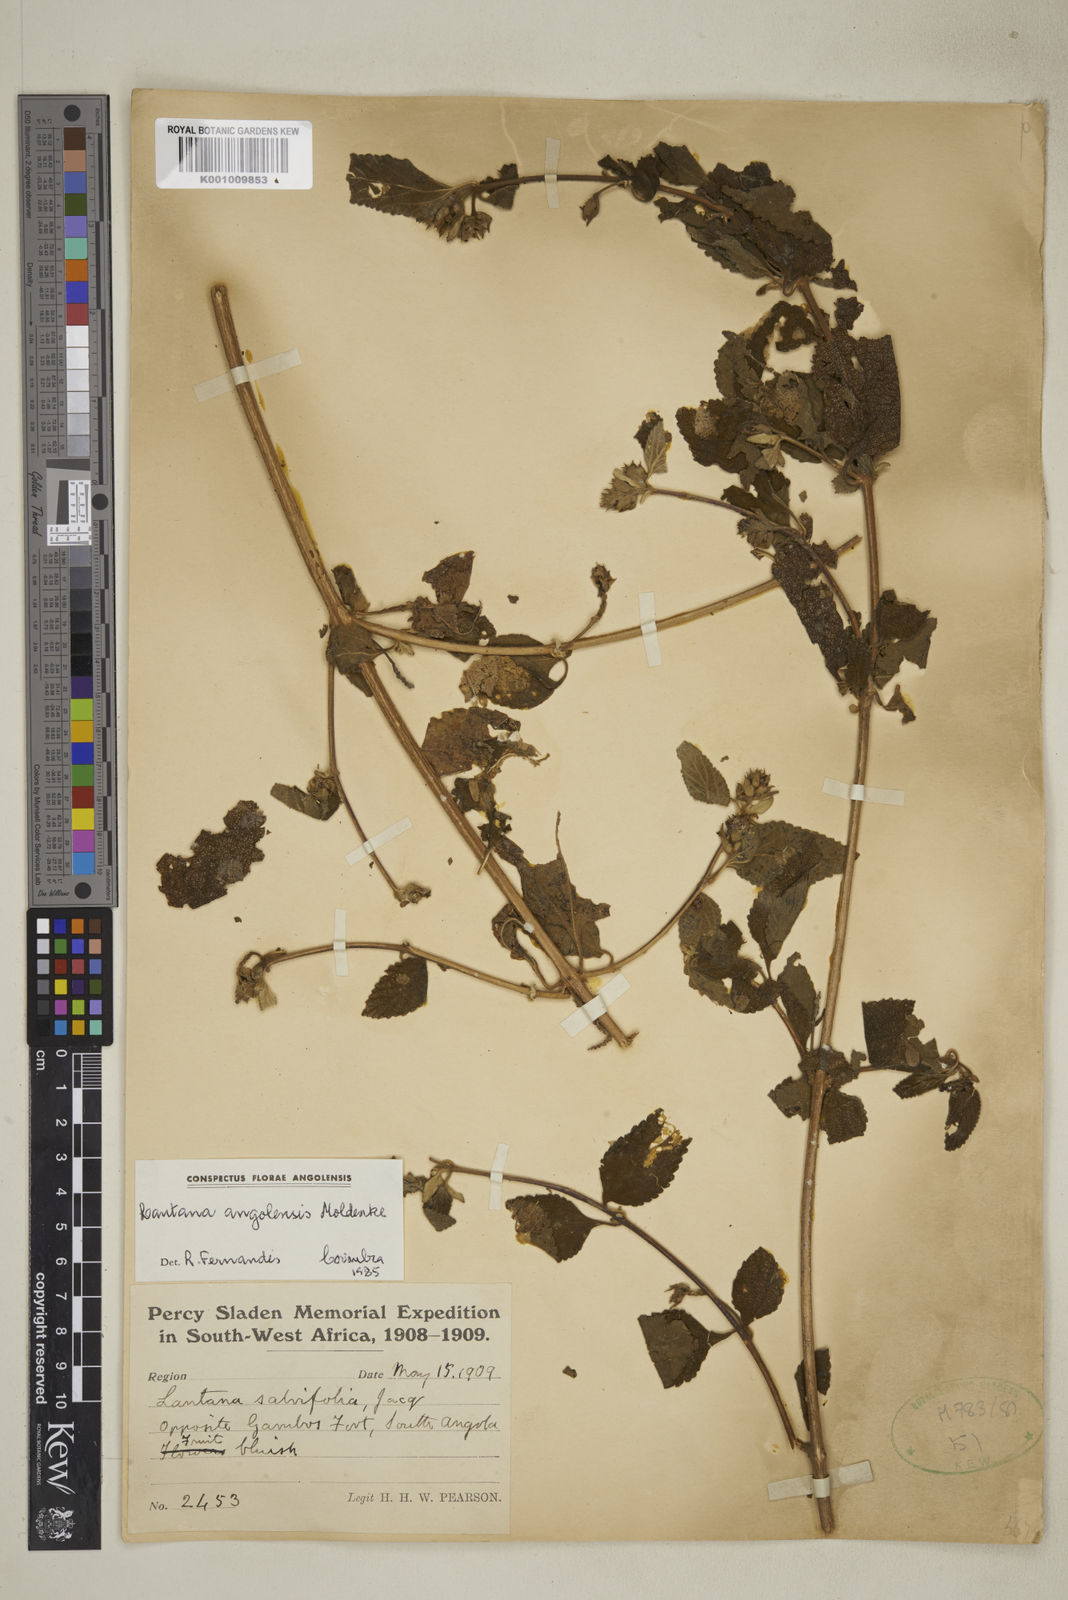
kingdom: Plantae
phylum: Tracheophyta
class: Magnoliopsida
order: Lamiales
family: Verbenaceae
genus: Lantana
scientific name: Lantana angolensis
